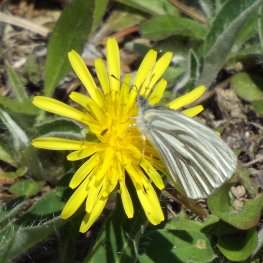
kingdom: Animalia
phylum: Arthropoda
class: Insecta
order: Lepidoptera
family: Pieridae
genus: Pieris
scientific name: Pieris oleracea
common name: Mustard White
